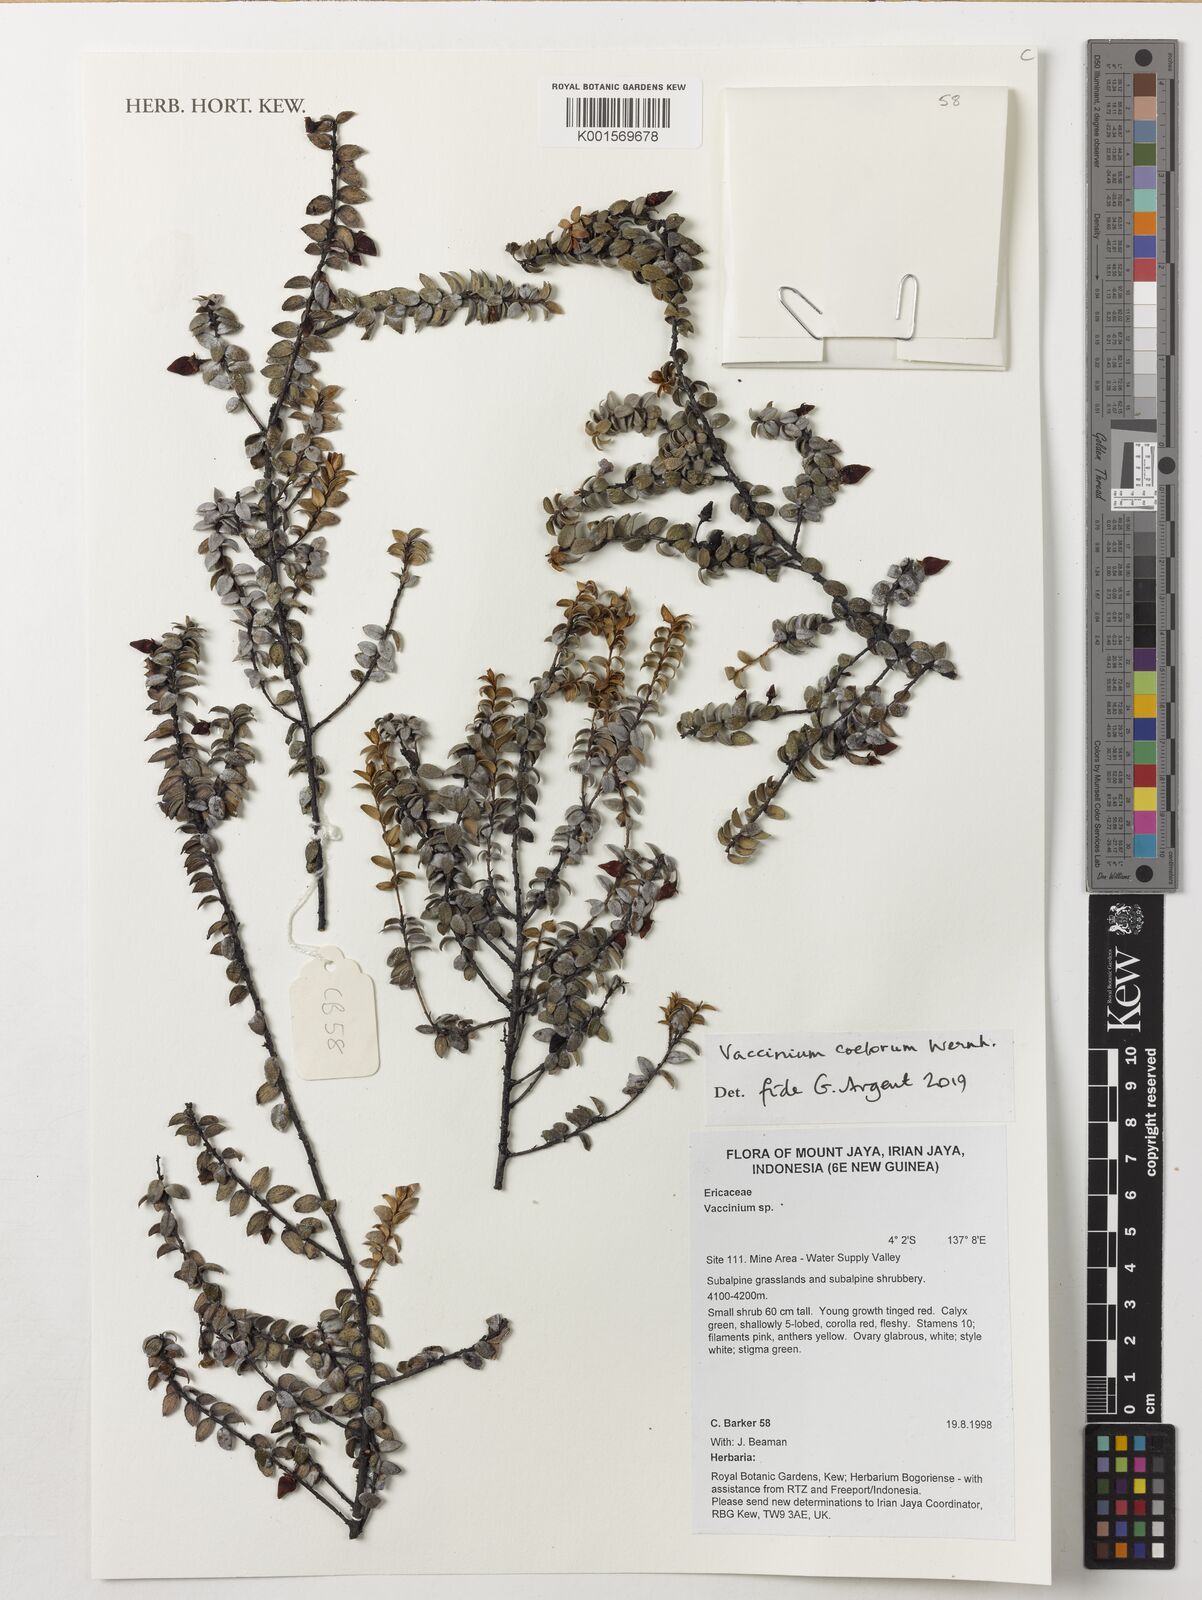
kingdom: Plantae
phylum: Tracheophyta
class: Magnoliopsida
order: Ericales
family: Ericaceae
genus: Vaccinium
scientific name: Vaccinium coelorum
